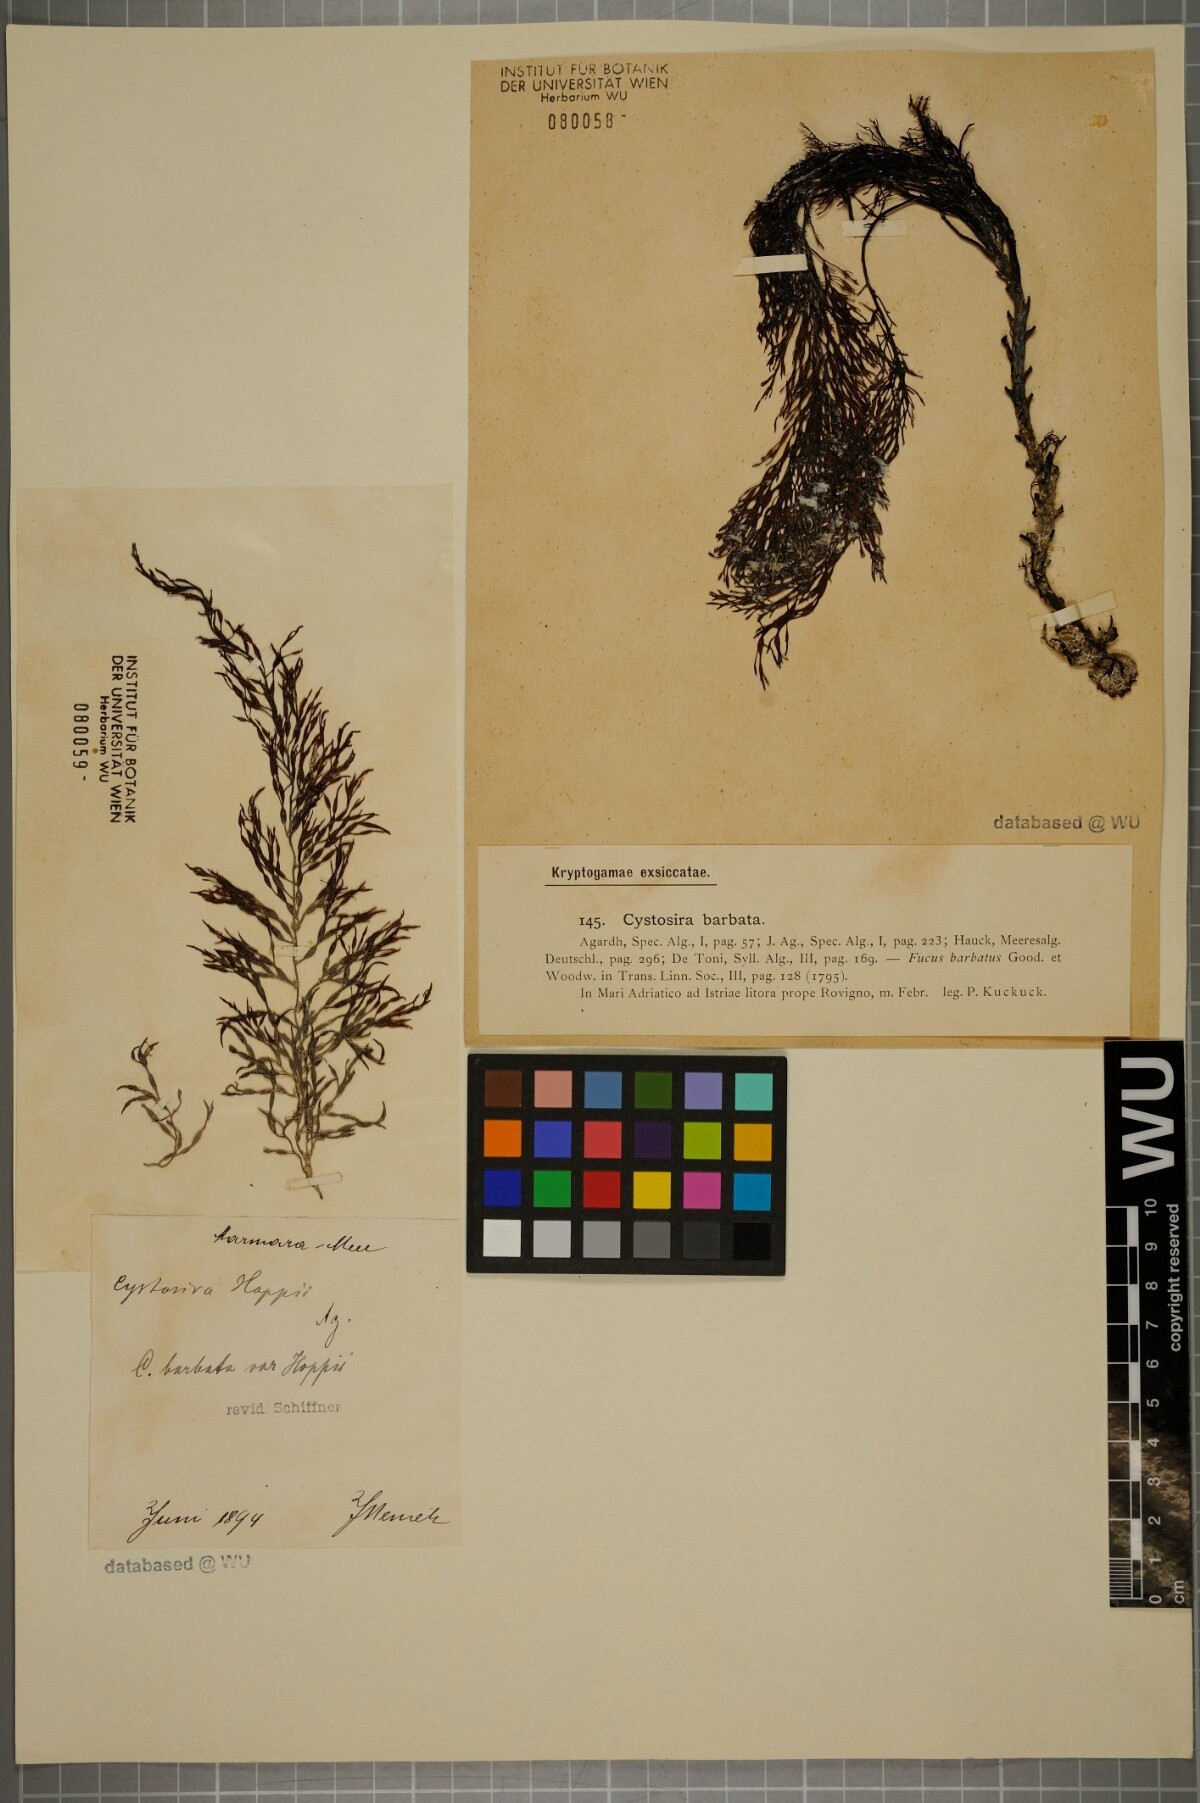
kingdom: Chromista
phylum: Ochrophyta
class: Phaeophyceae
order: Fucales
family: Sargassaceae
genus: Cystoseira
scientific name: Cystoseira Gongolaria barbata
